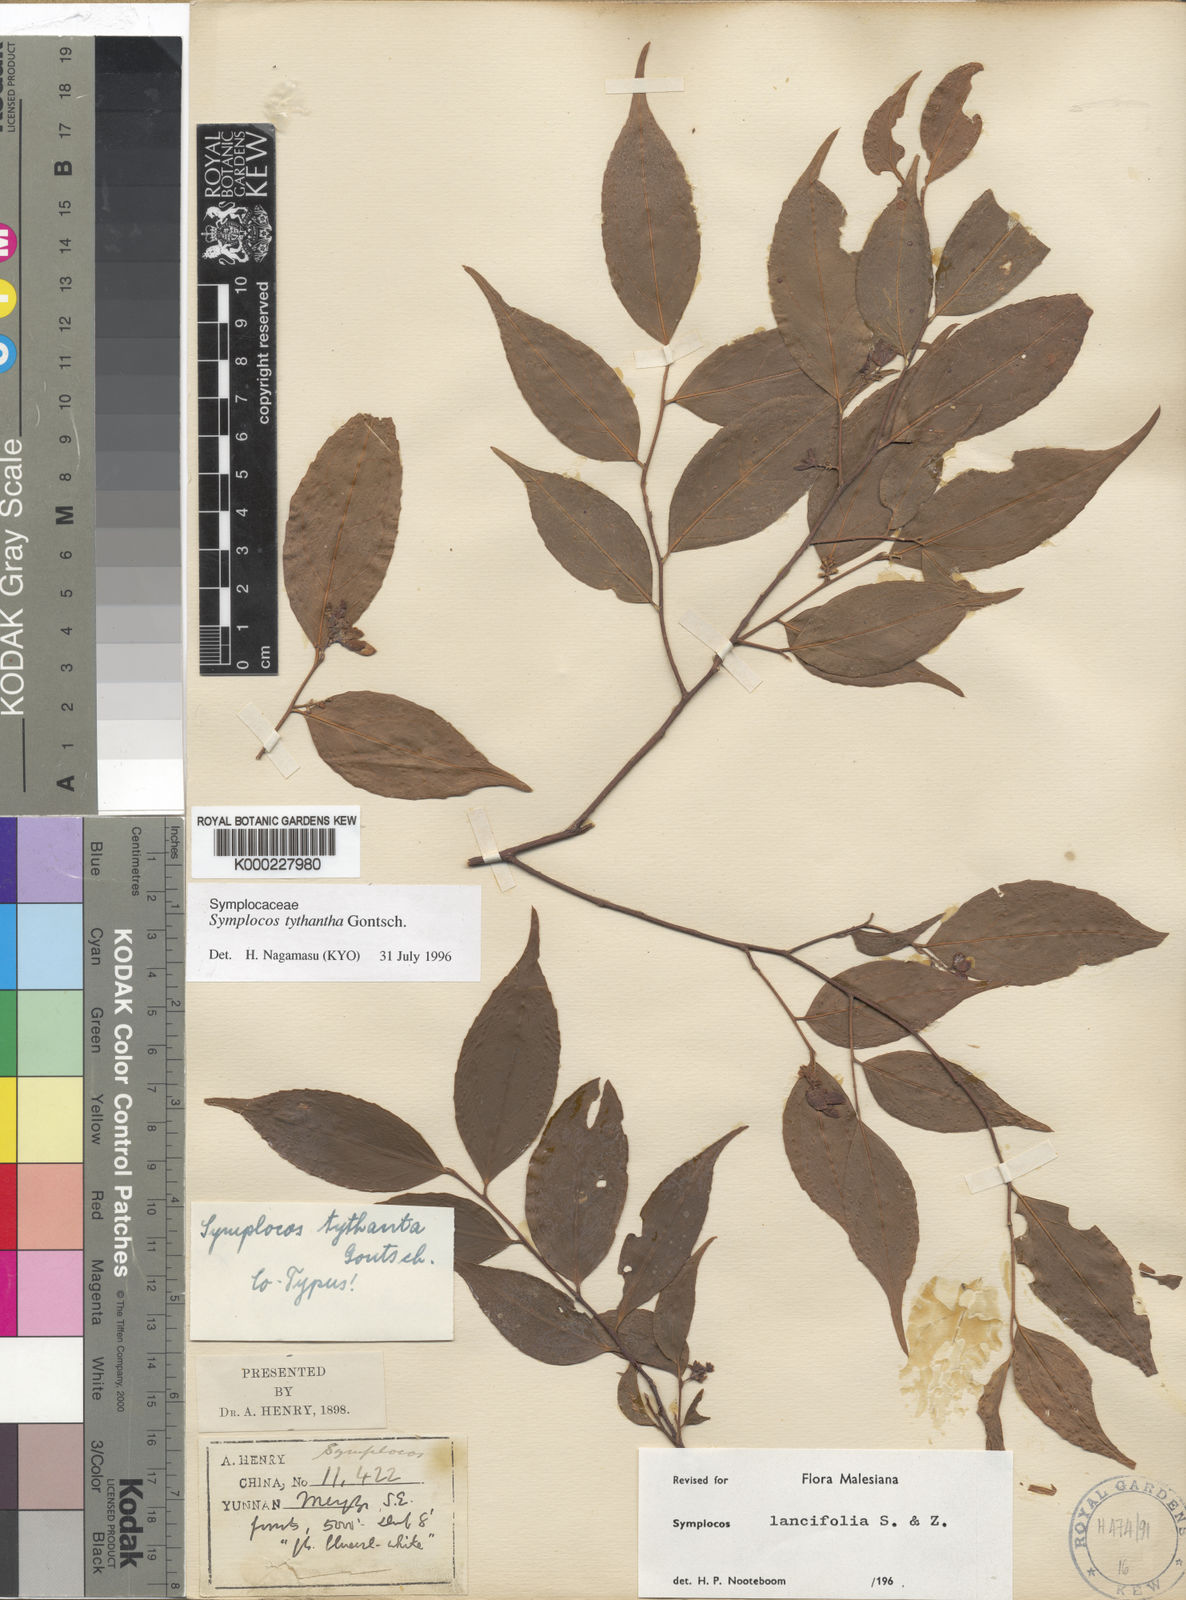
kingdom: Plantae
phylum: Tracheophyta
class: Magnoliopsida
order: Ericales
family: Symplocaceae
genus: Symplocos
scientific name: Symplocos lancifolia
